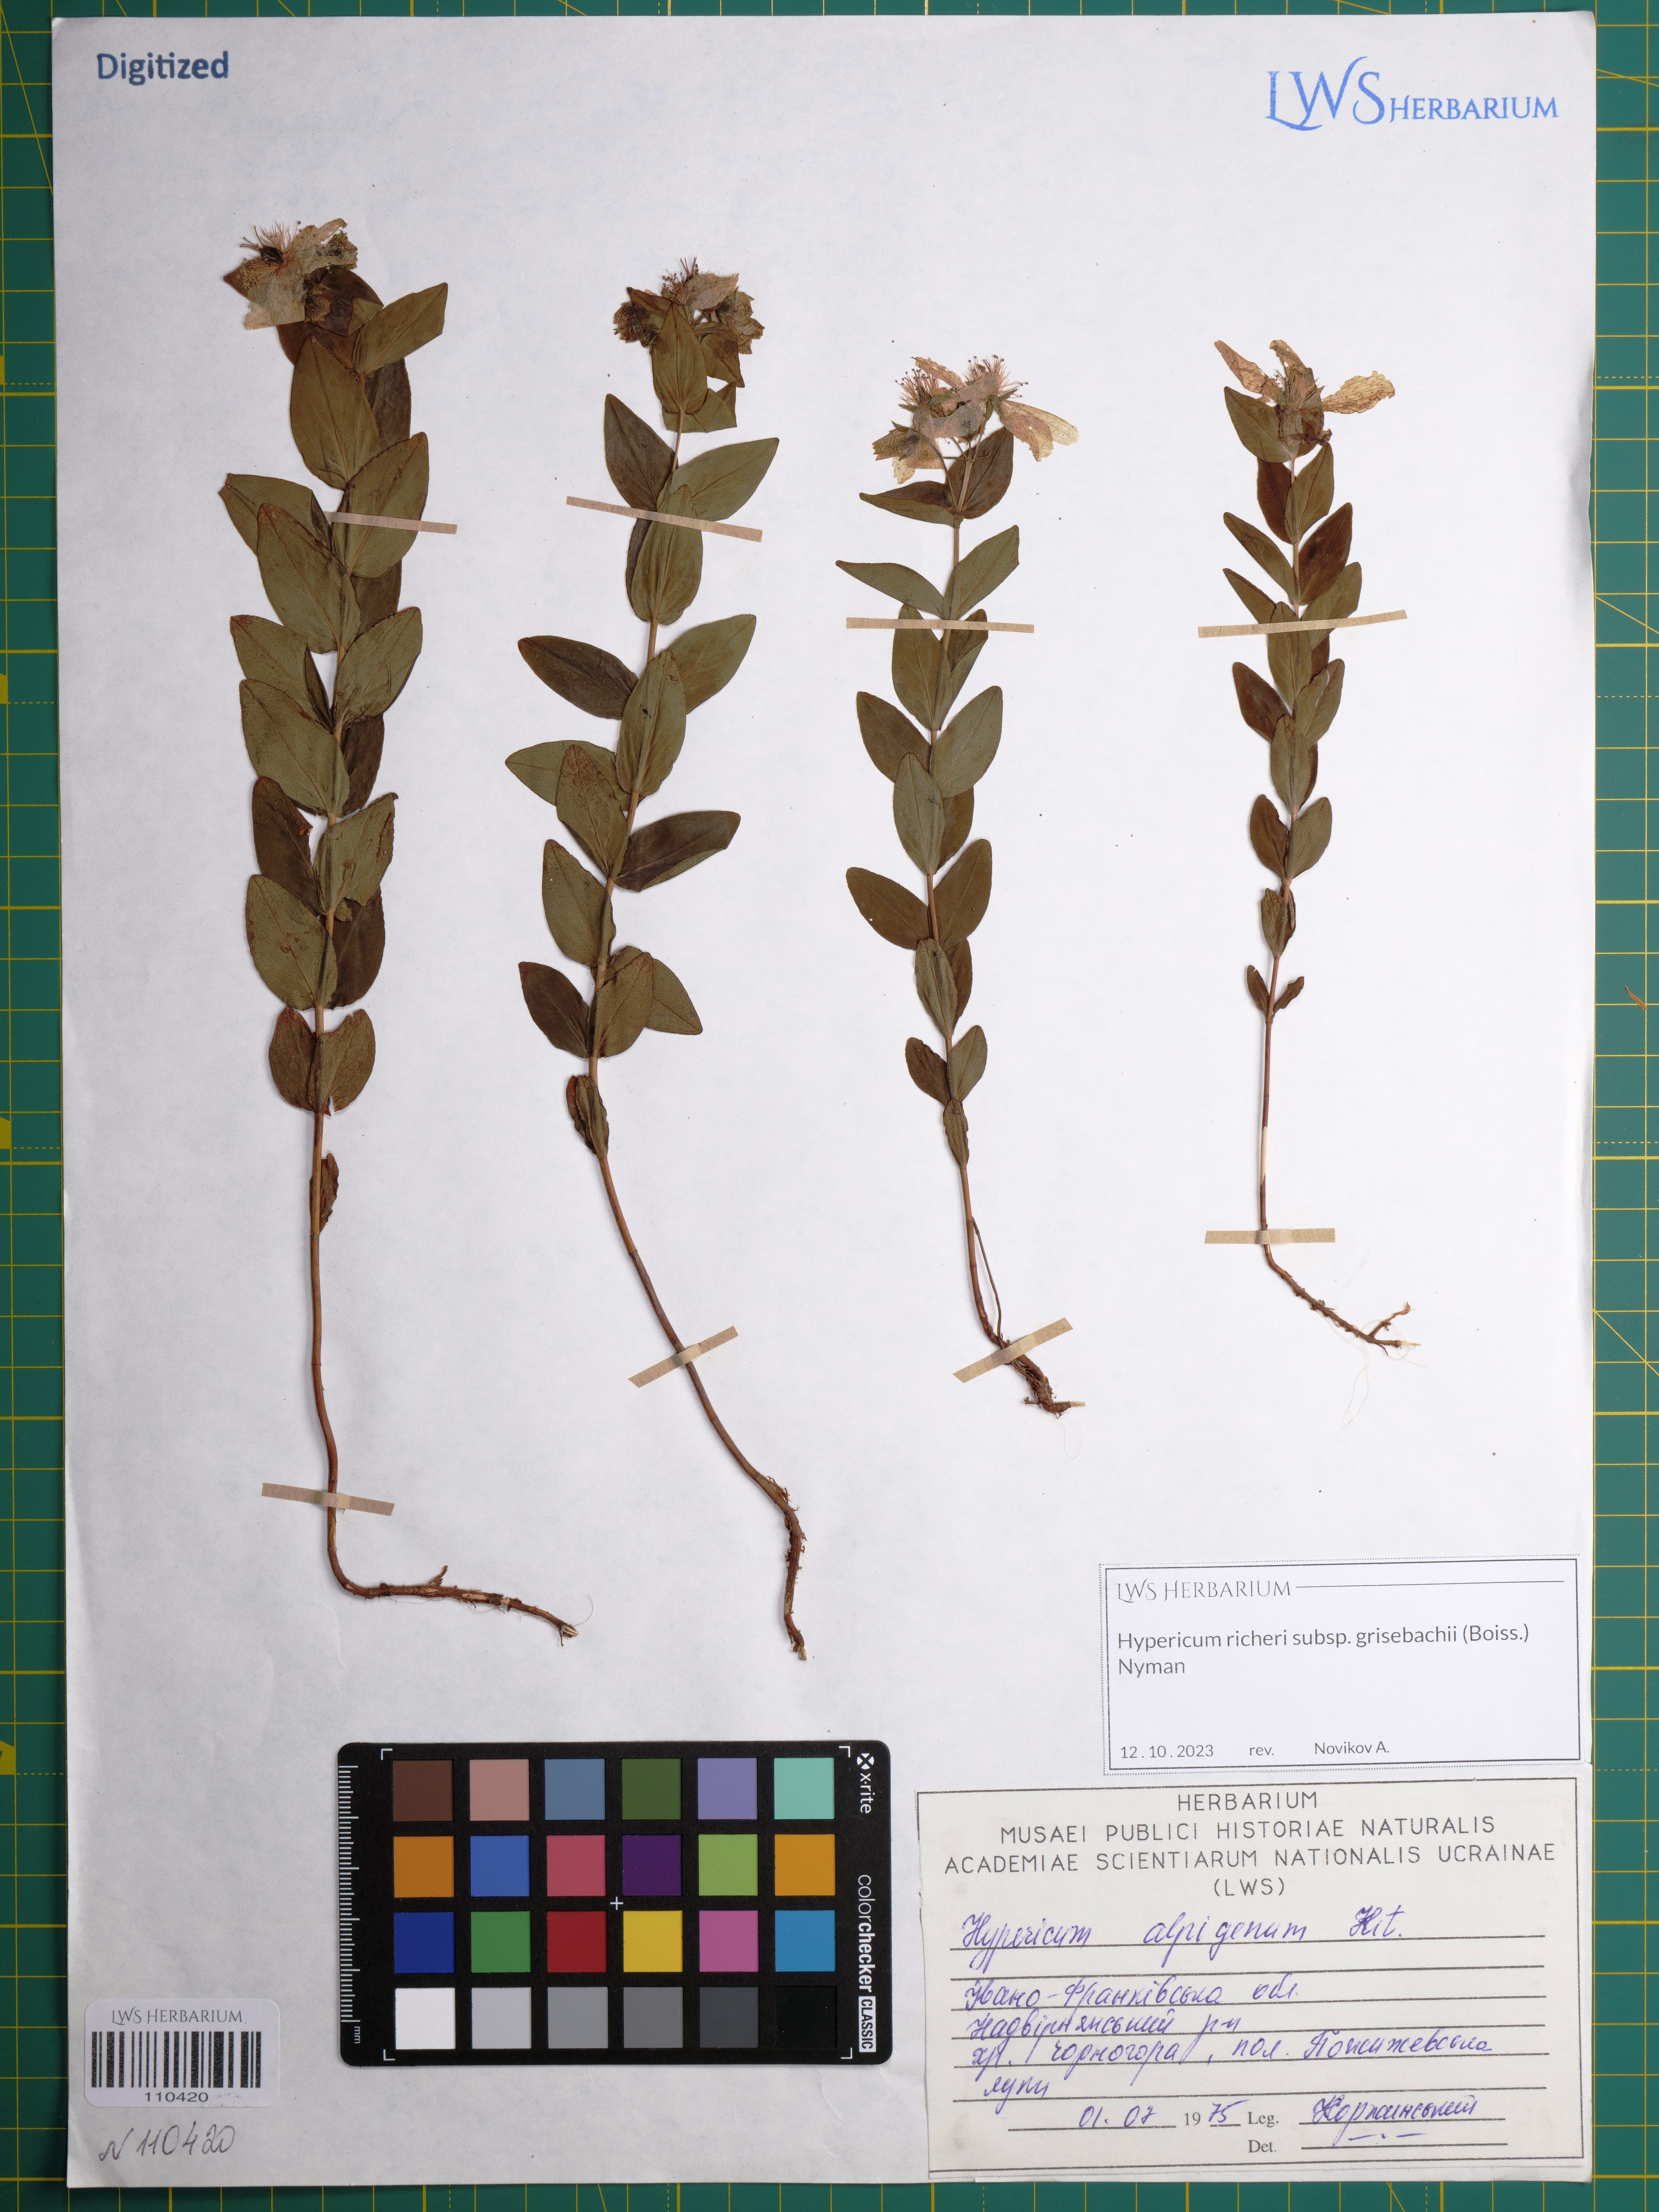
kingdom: Plantae
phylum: Tracheophyta
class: Magnoliopsida
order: Malpighiales
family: Hypericaceae
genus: Hypericum
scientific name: Hypericum richeri
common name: Alpine st john's-wort
